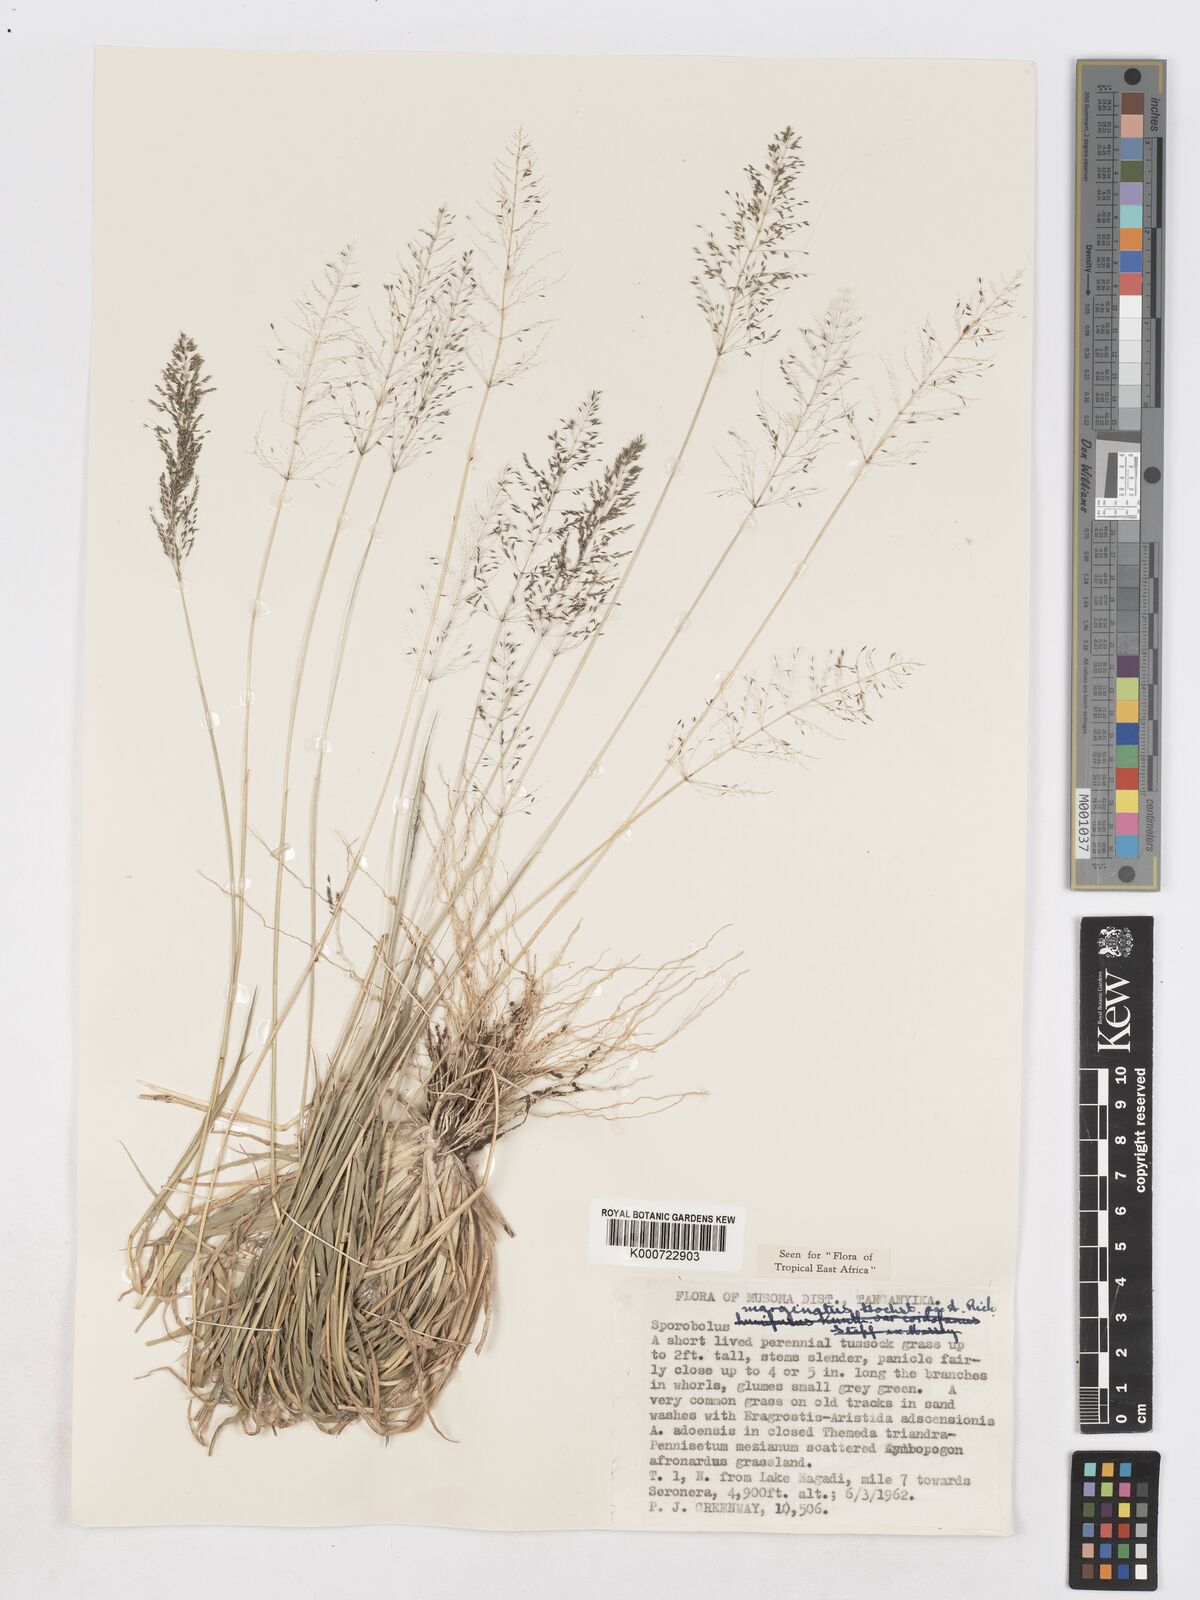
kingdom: Plantae
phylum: Tracheophyta
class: Liliopsida
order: Poales
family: Poaceae
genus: Sporobolus
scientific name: Sporobolus ioclados
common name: Pan dropseed
